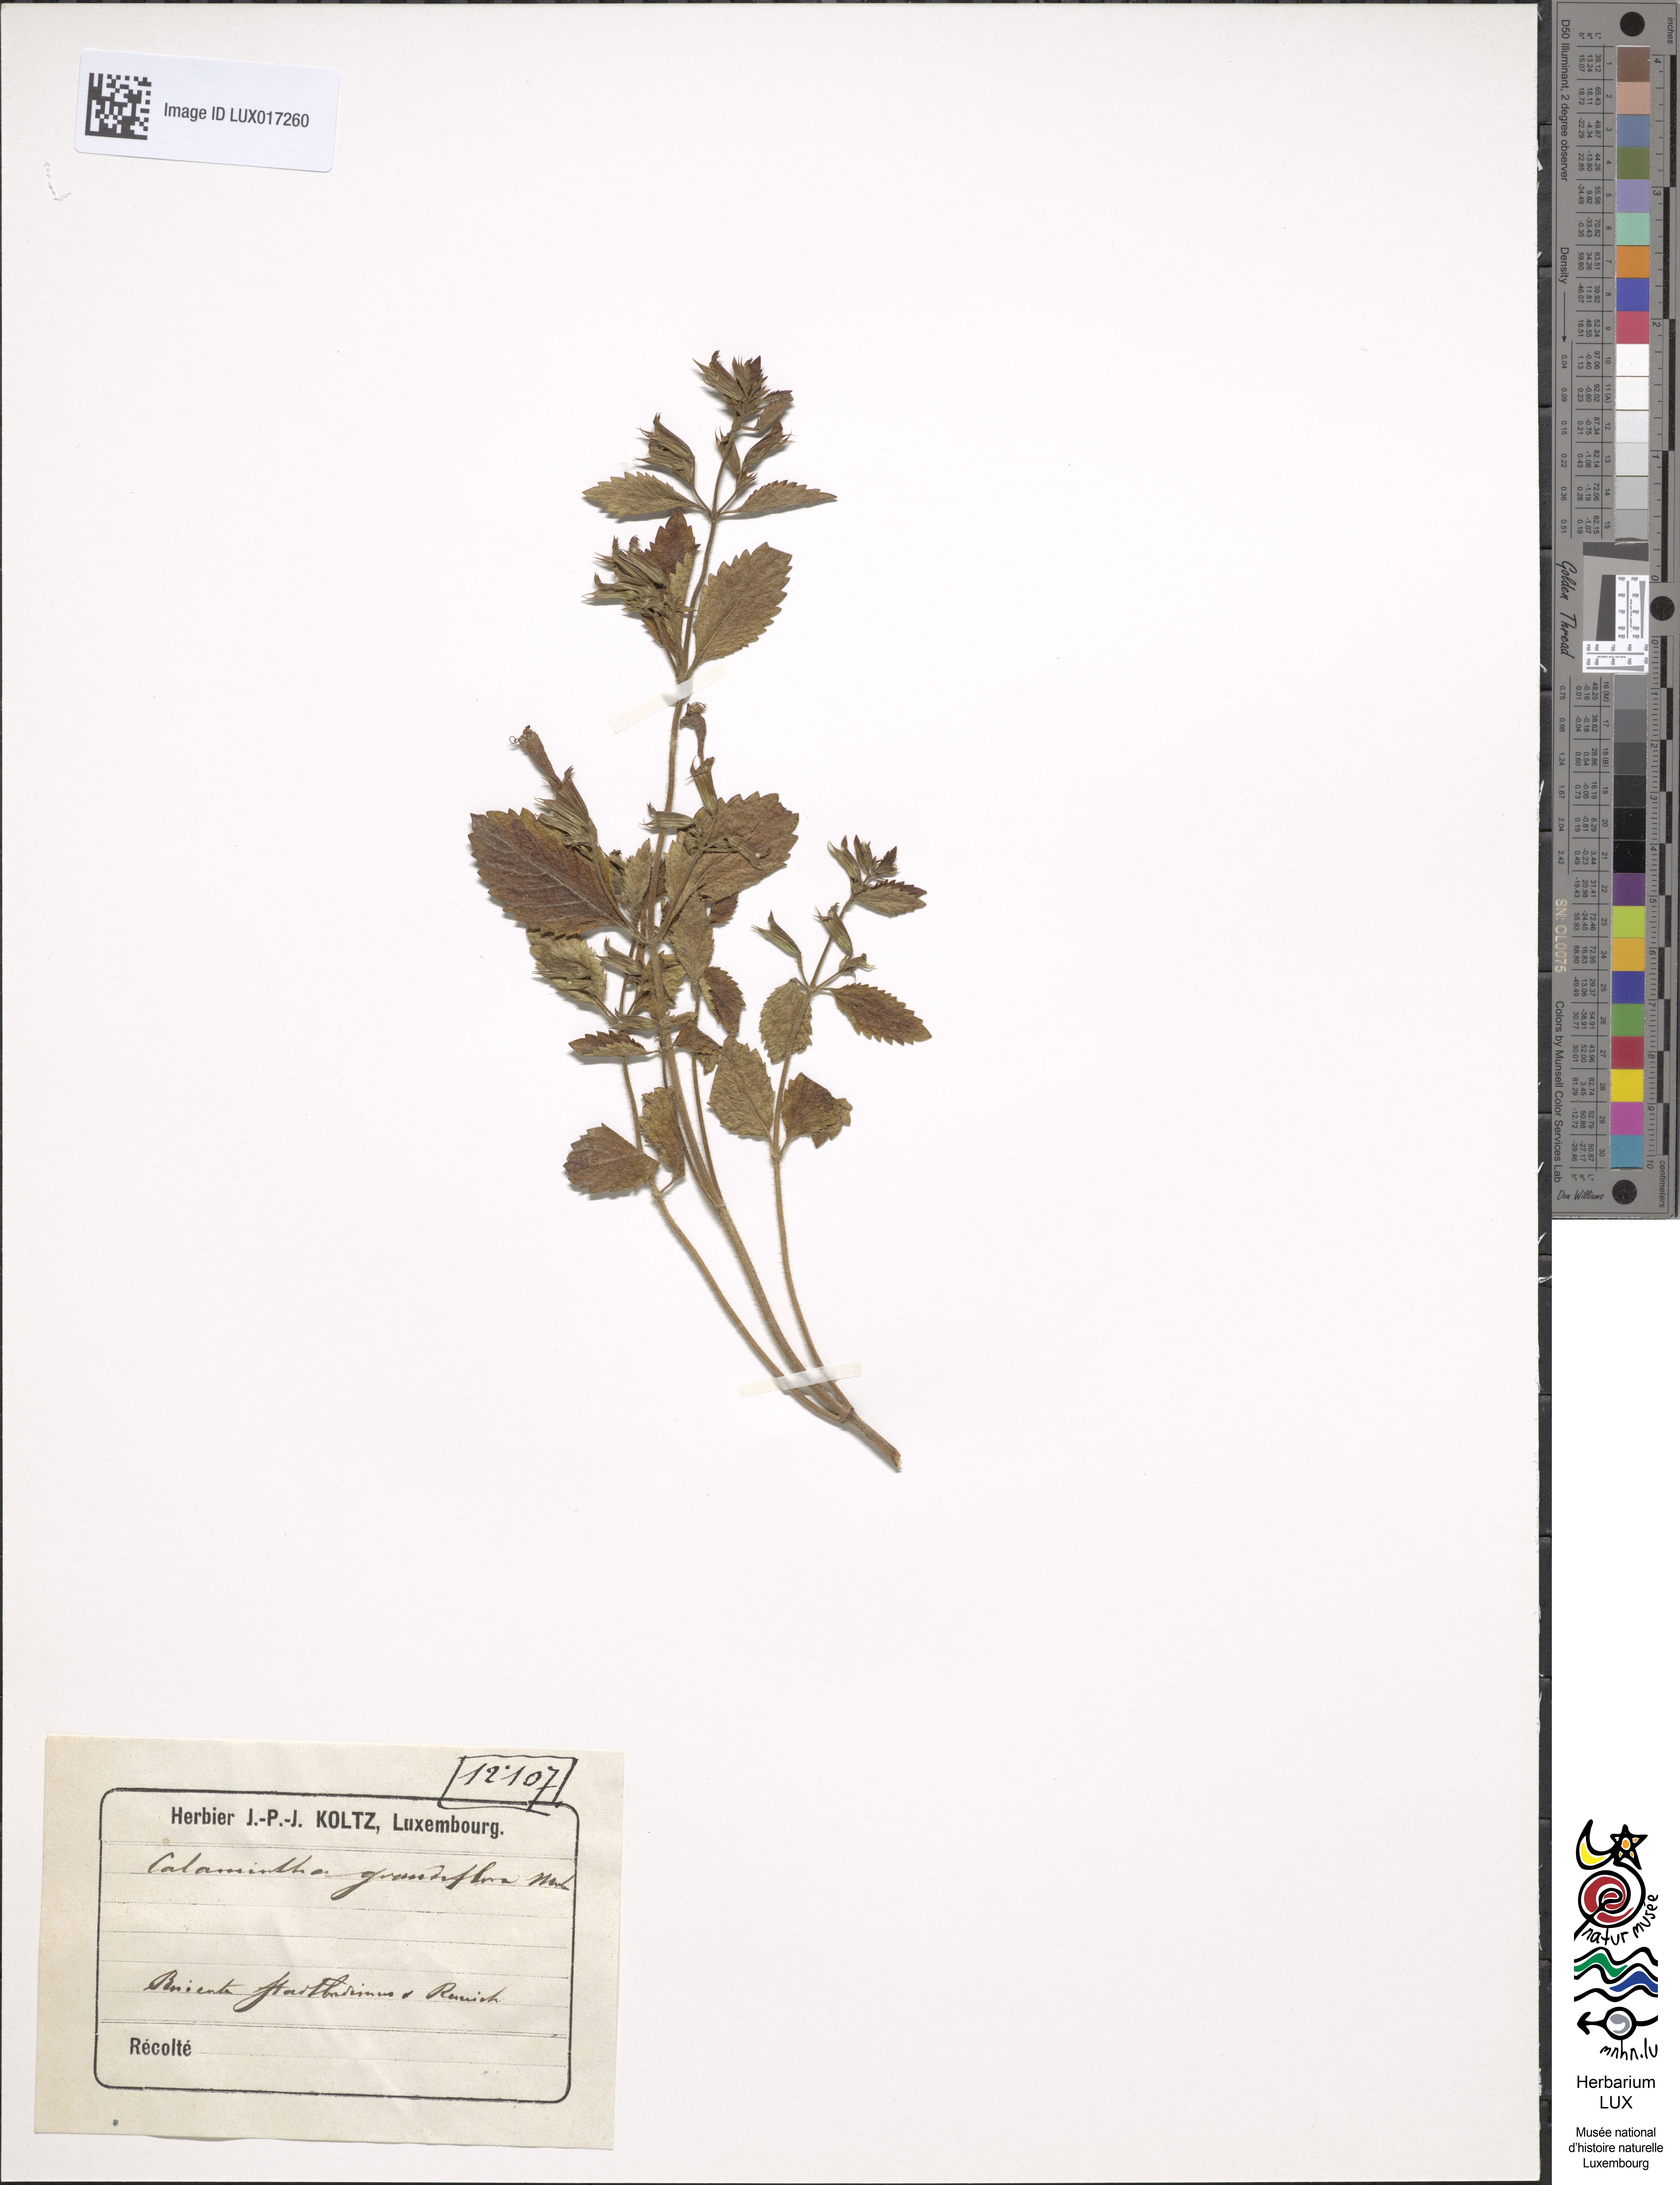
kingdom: Plantae
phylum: Tracheophyta
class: Magnoliopsida
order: Lamiales
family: Lamiaceae
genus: Clinopodium
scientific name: Clinopodium grandiflorum
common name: Greater calamint
